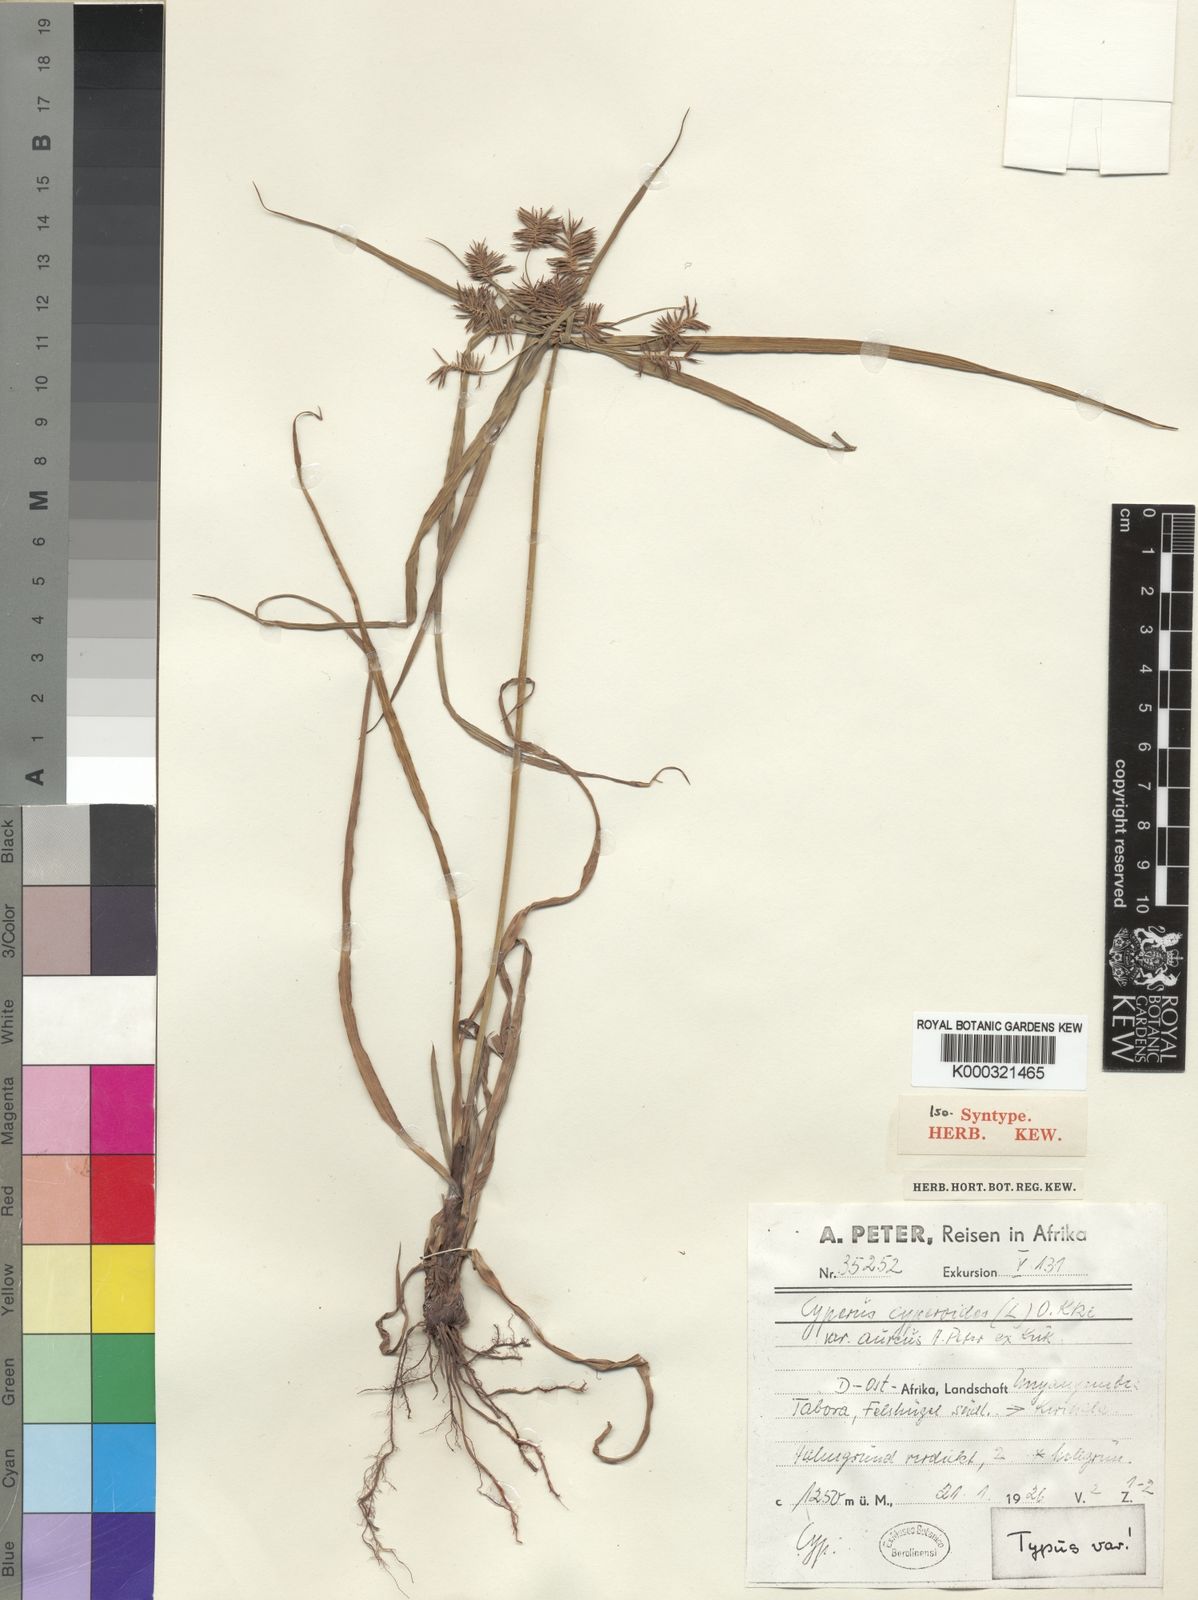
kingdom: Plantae
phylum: Tracheophyta
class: Liliopsida
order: Poales
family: Cyperaceae
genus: Cyperus
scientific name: Cyperus cyperoides
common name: Pacific island flat sedge
